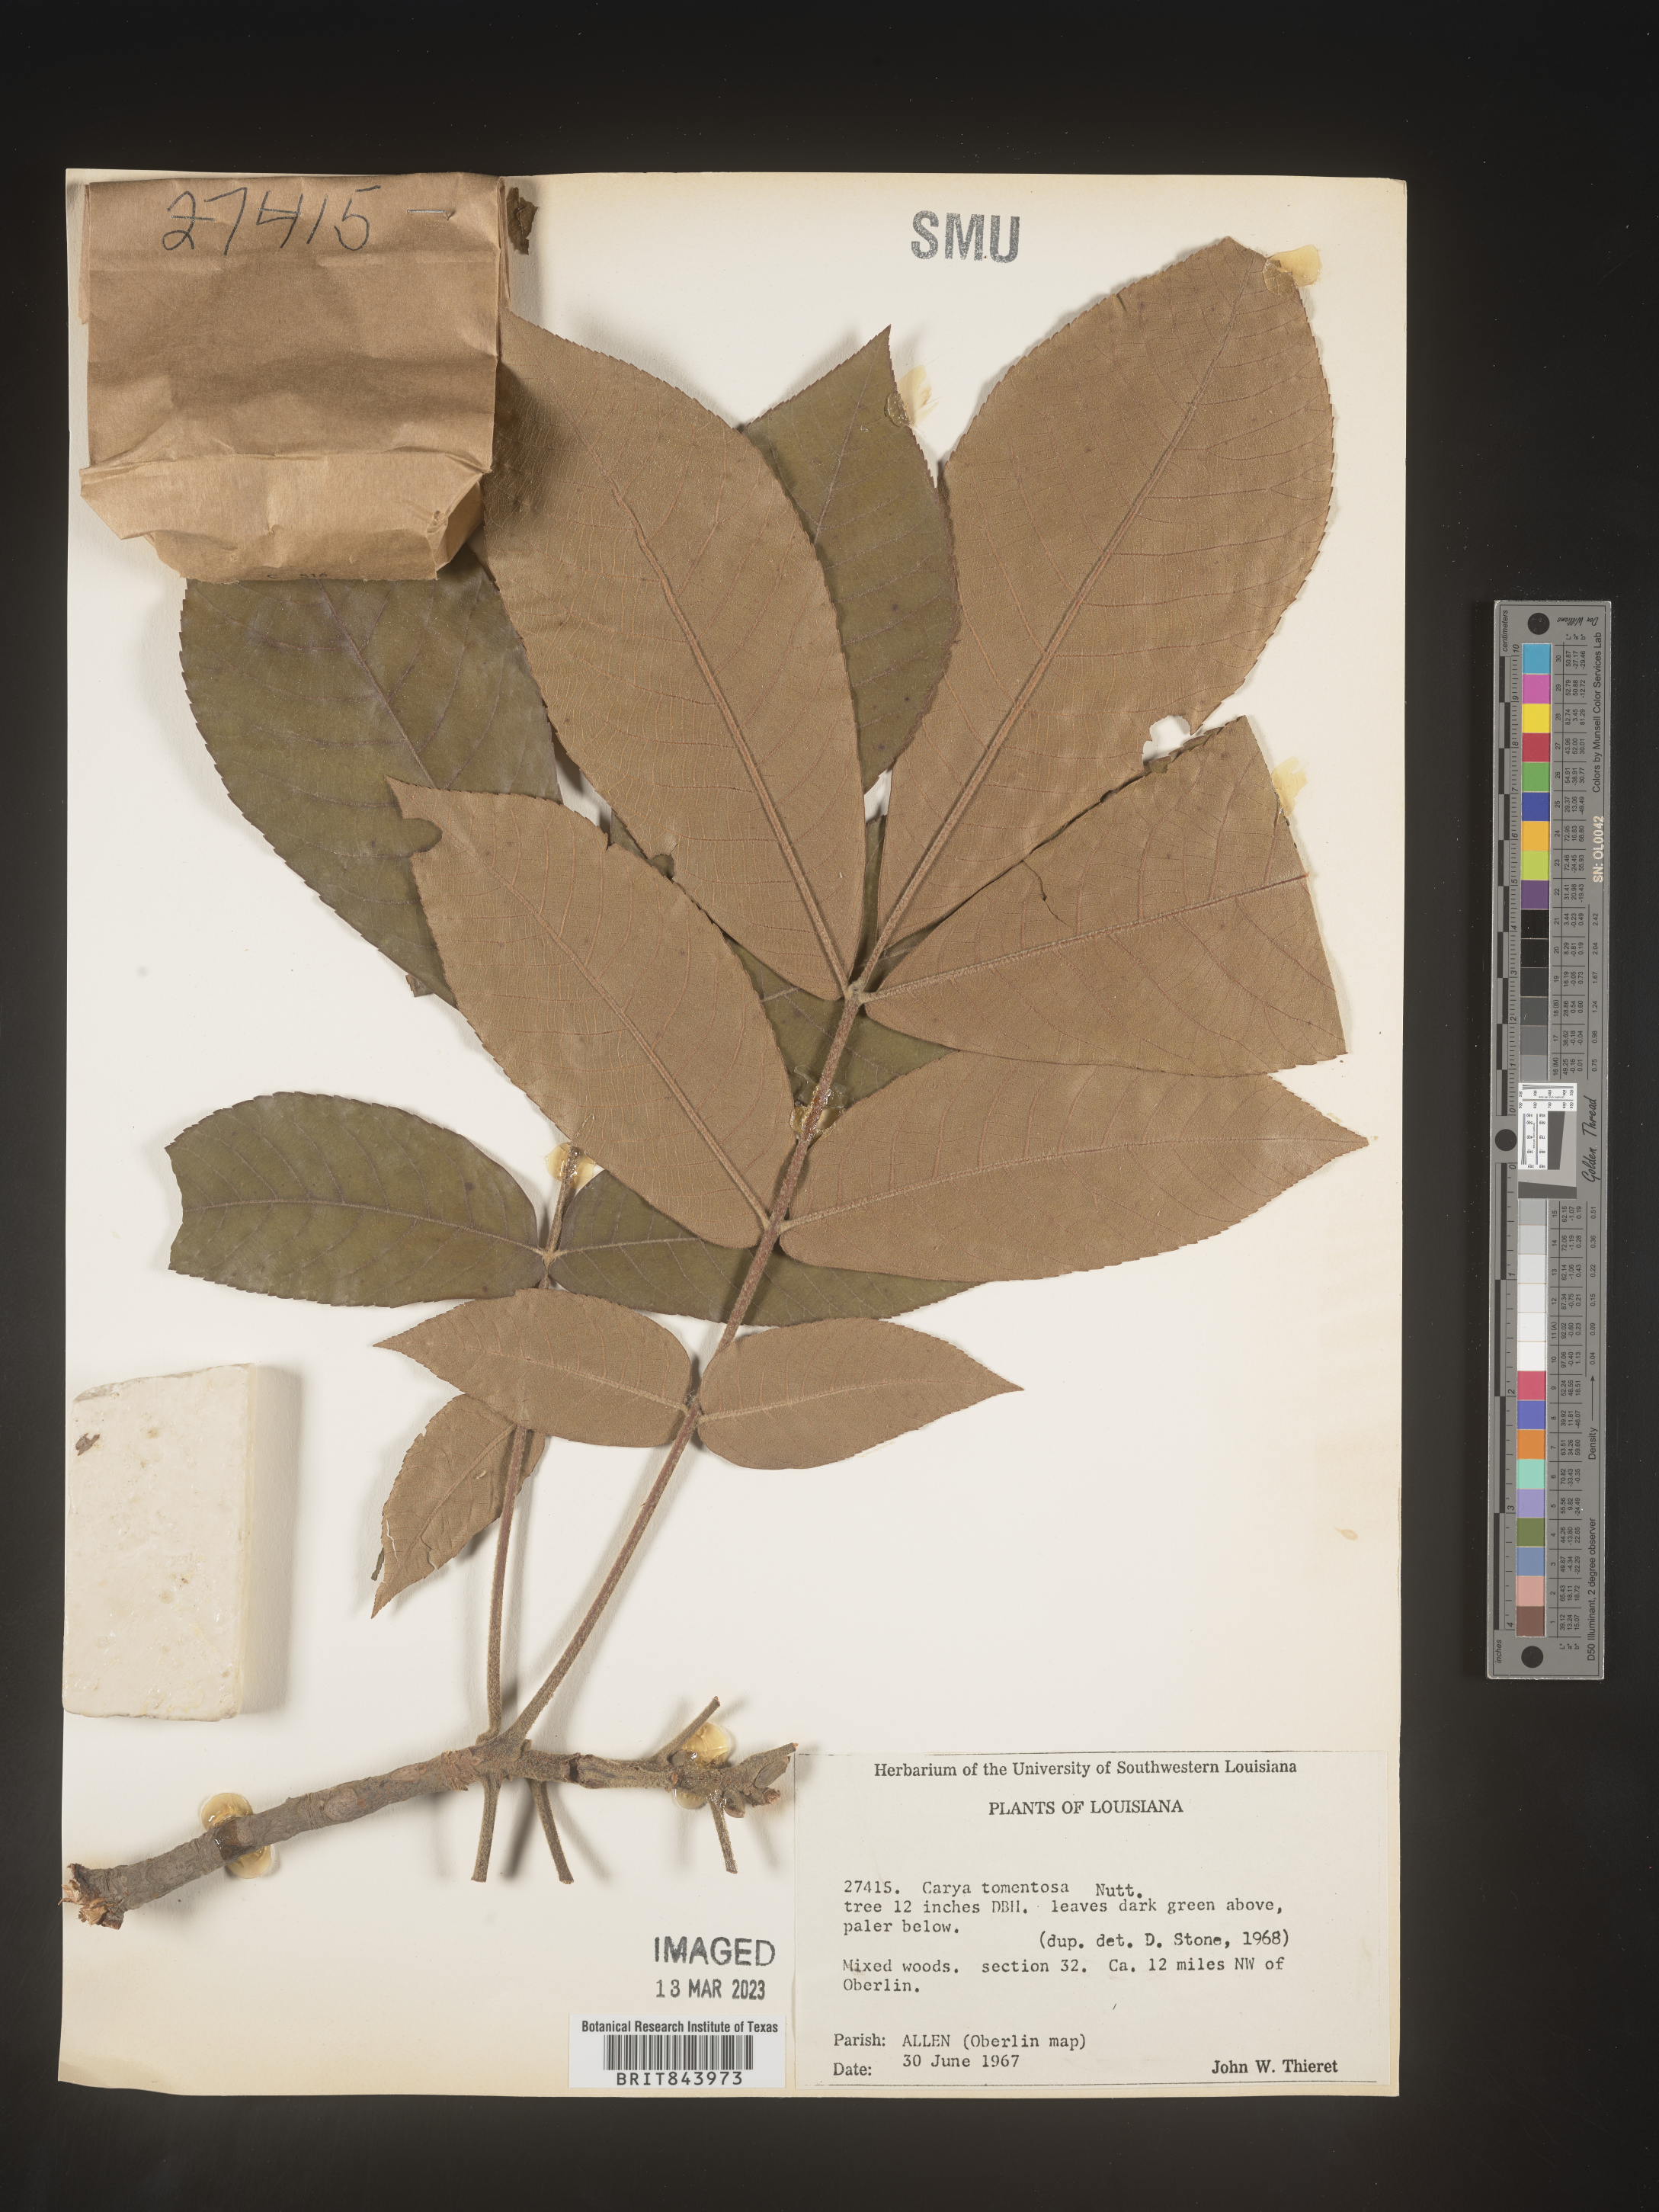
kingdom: Plantae
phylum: Tracheophyta
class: Magnoliopsida
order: Fagales
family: Juglandaceae
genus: Carya
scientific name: Carya alba
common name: Mockernut hickory
